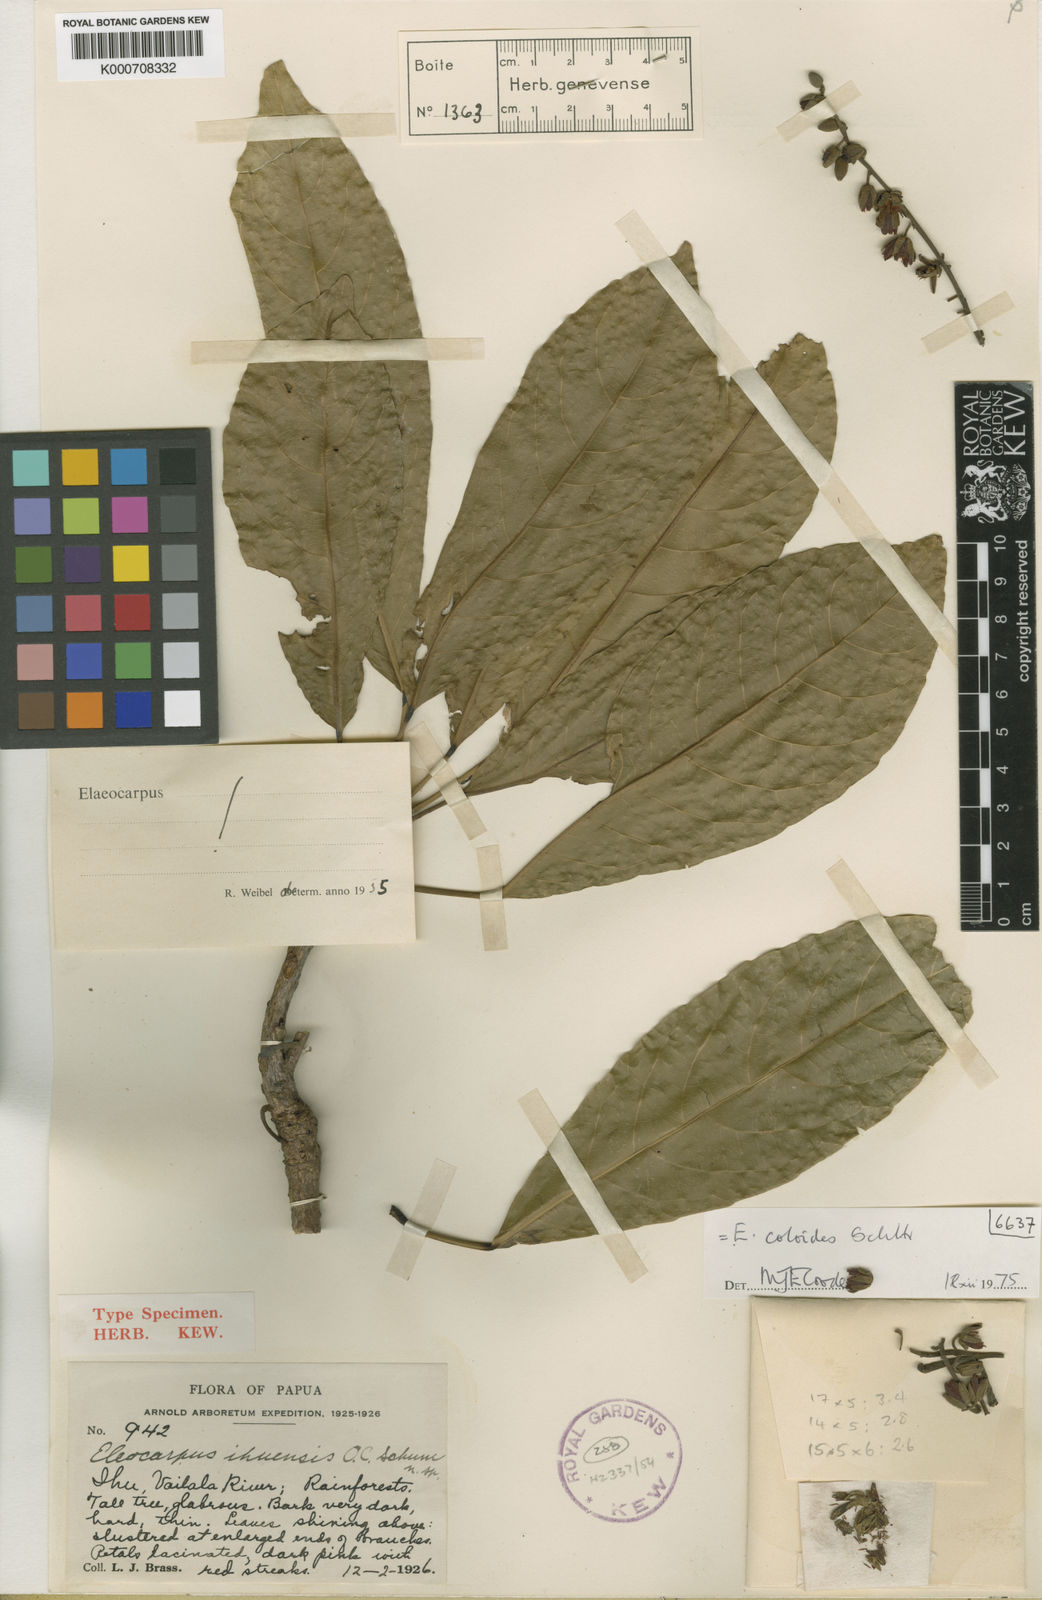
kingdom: Plantae
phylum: Tracheophyta
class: Magnoliopsida
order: Oxalidales
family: Elaeocarpaceae
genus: Elaeocarpus
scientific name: Elaeocarpus coloides
